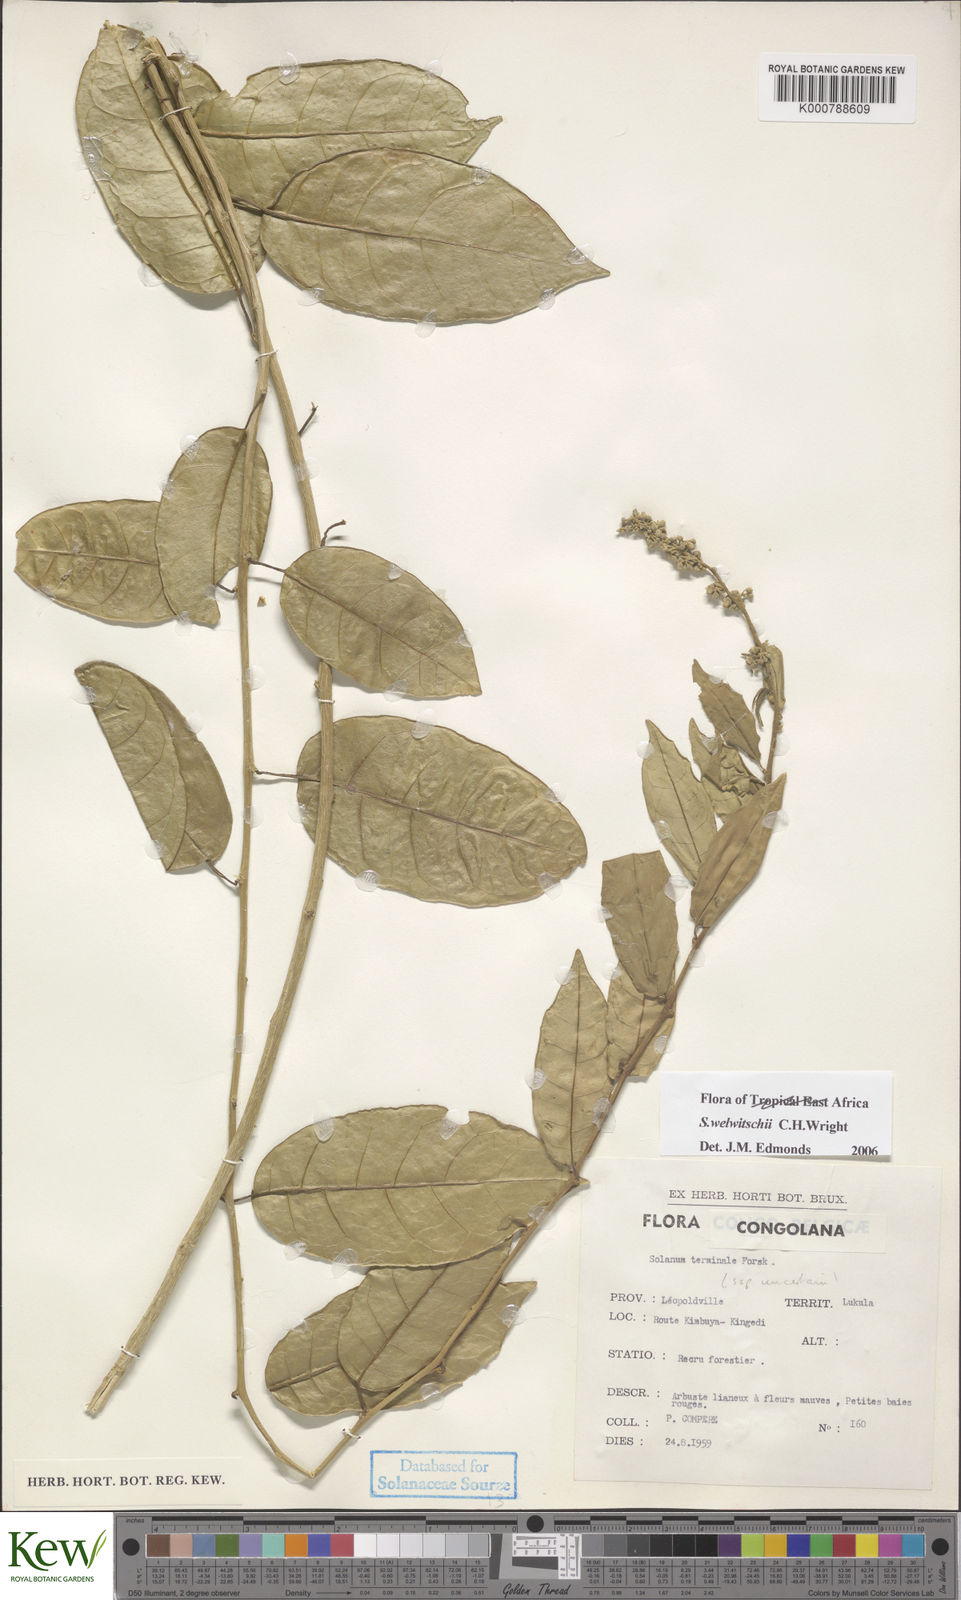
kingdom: Plantae
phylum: Tracheophyta
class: Magnoliopsida
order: Solanales
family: Solanaceae
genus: Solanum
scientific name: Solanum terminale
